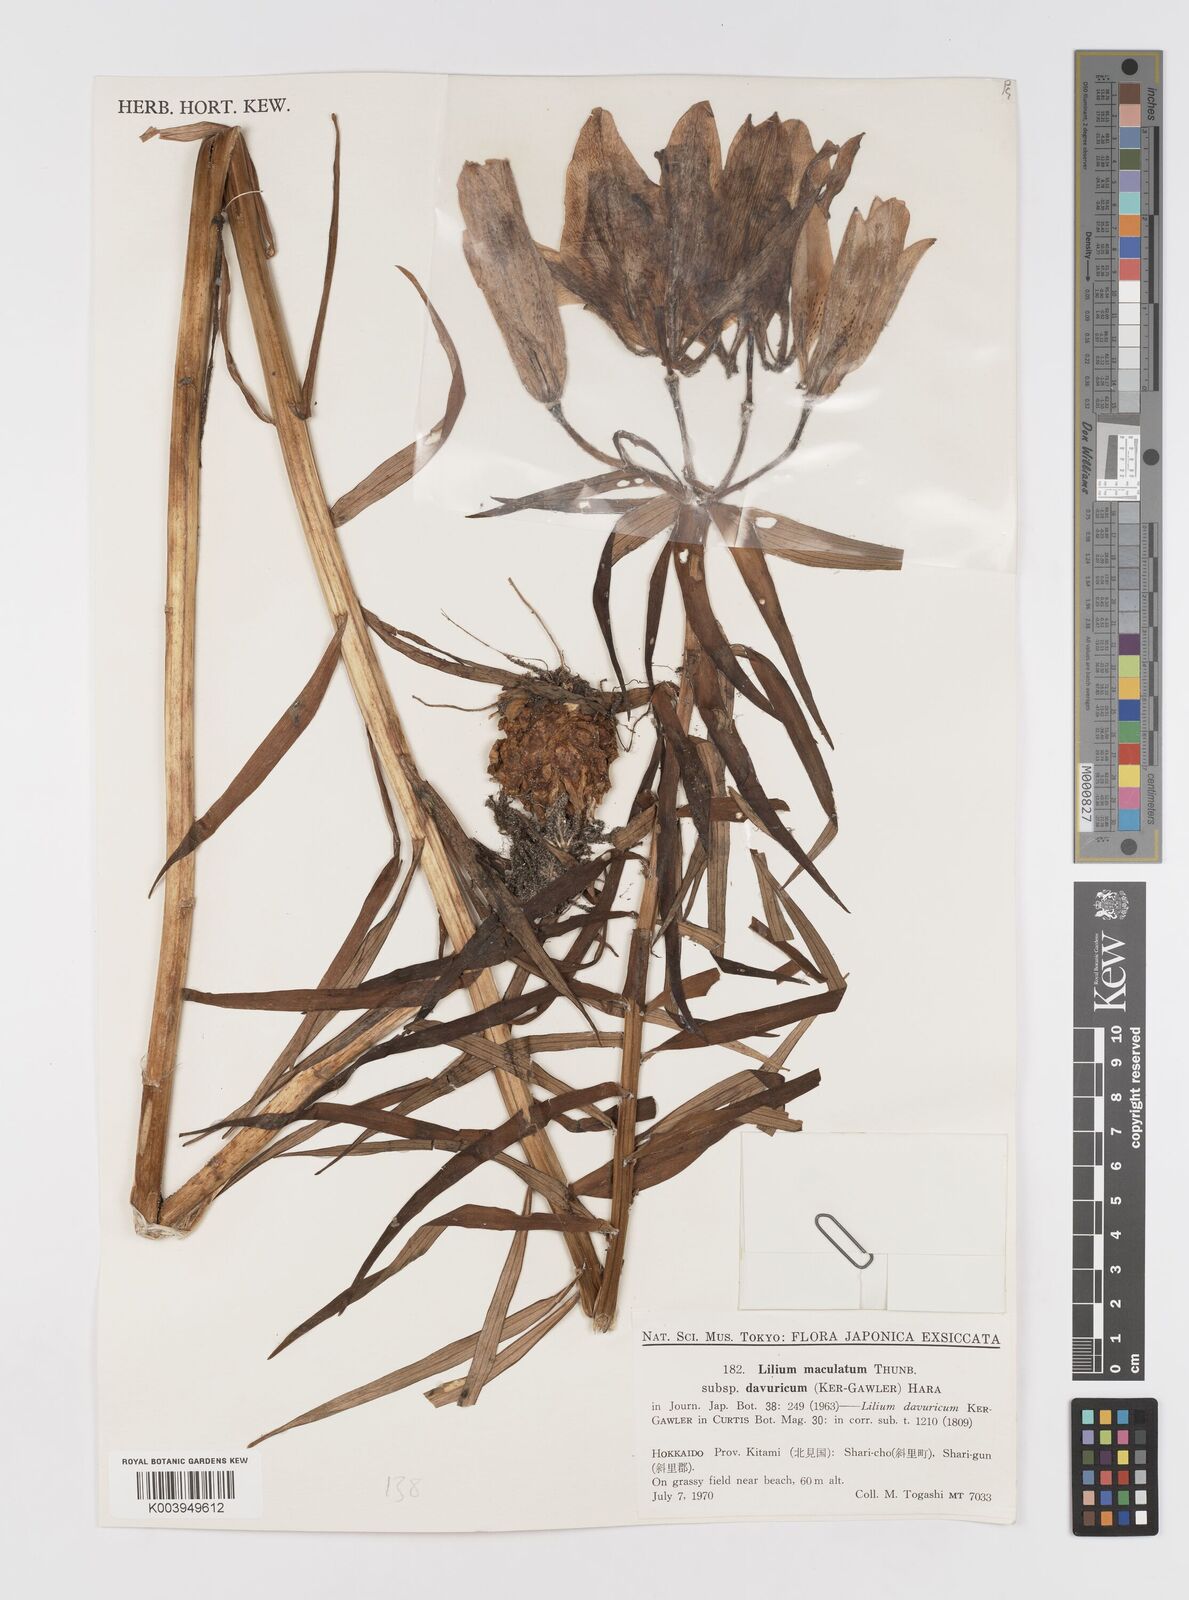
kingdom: Plantae
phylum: Tracheophyta
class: Liliopsida
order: Liliales
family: Liliaceae
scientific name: Liliaceae
